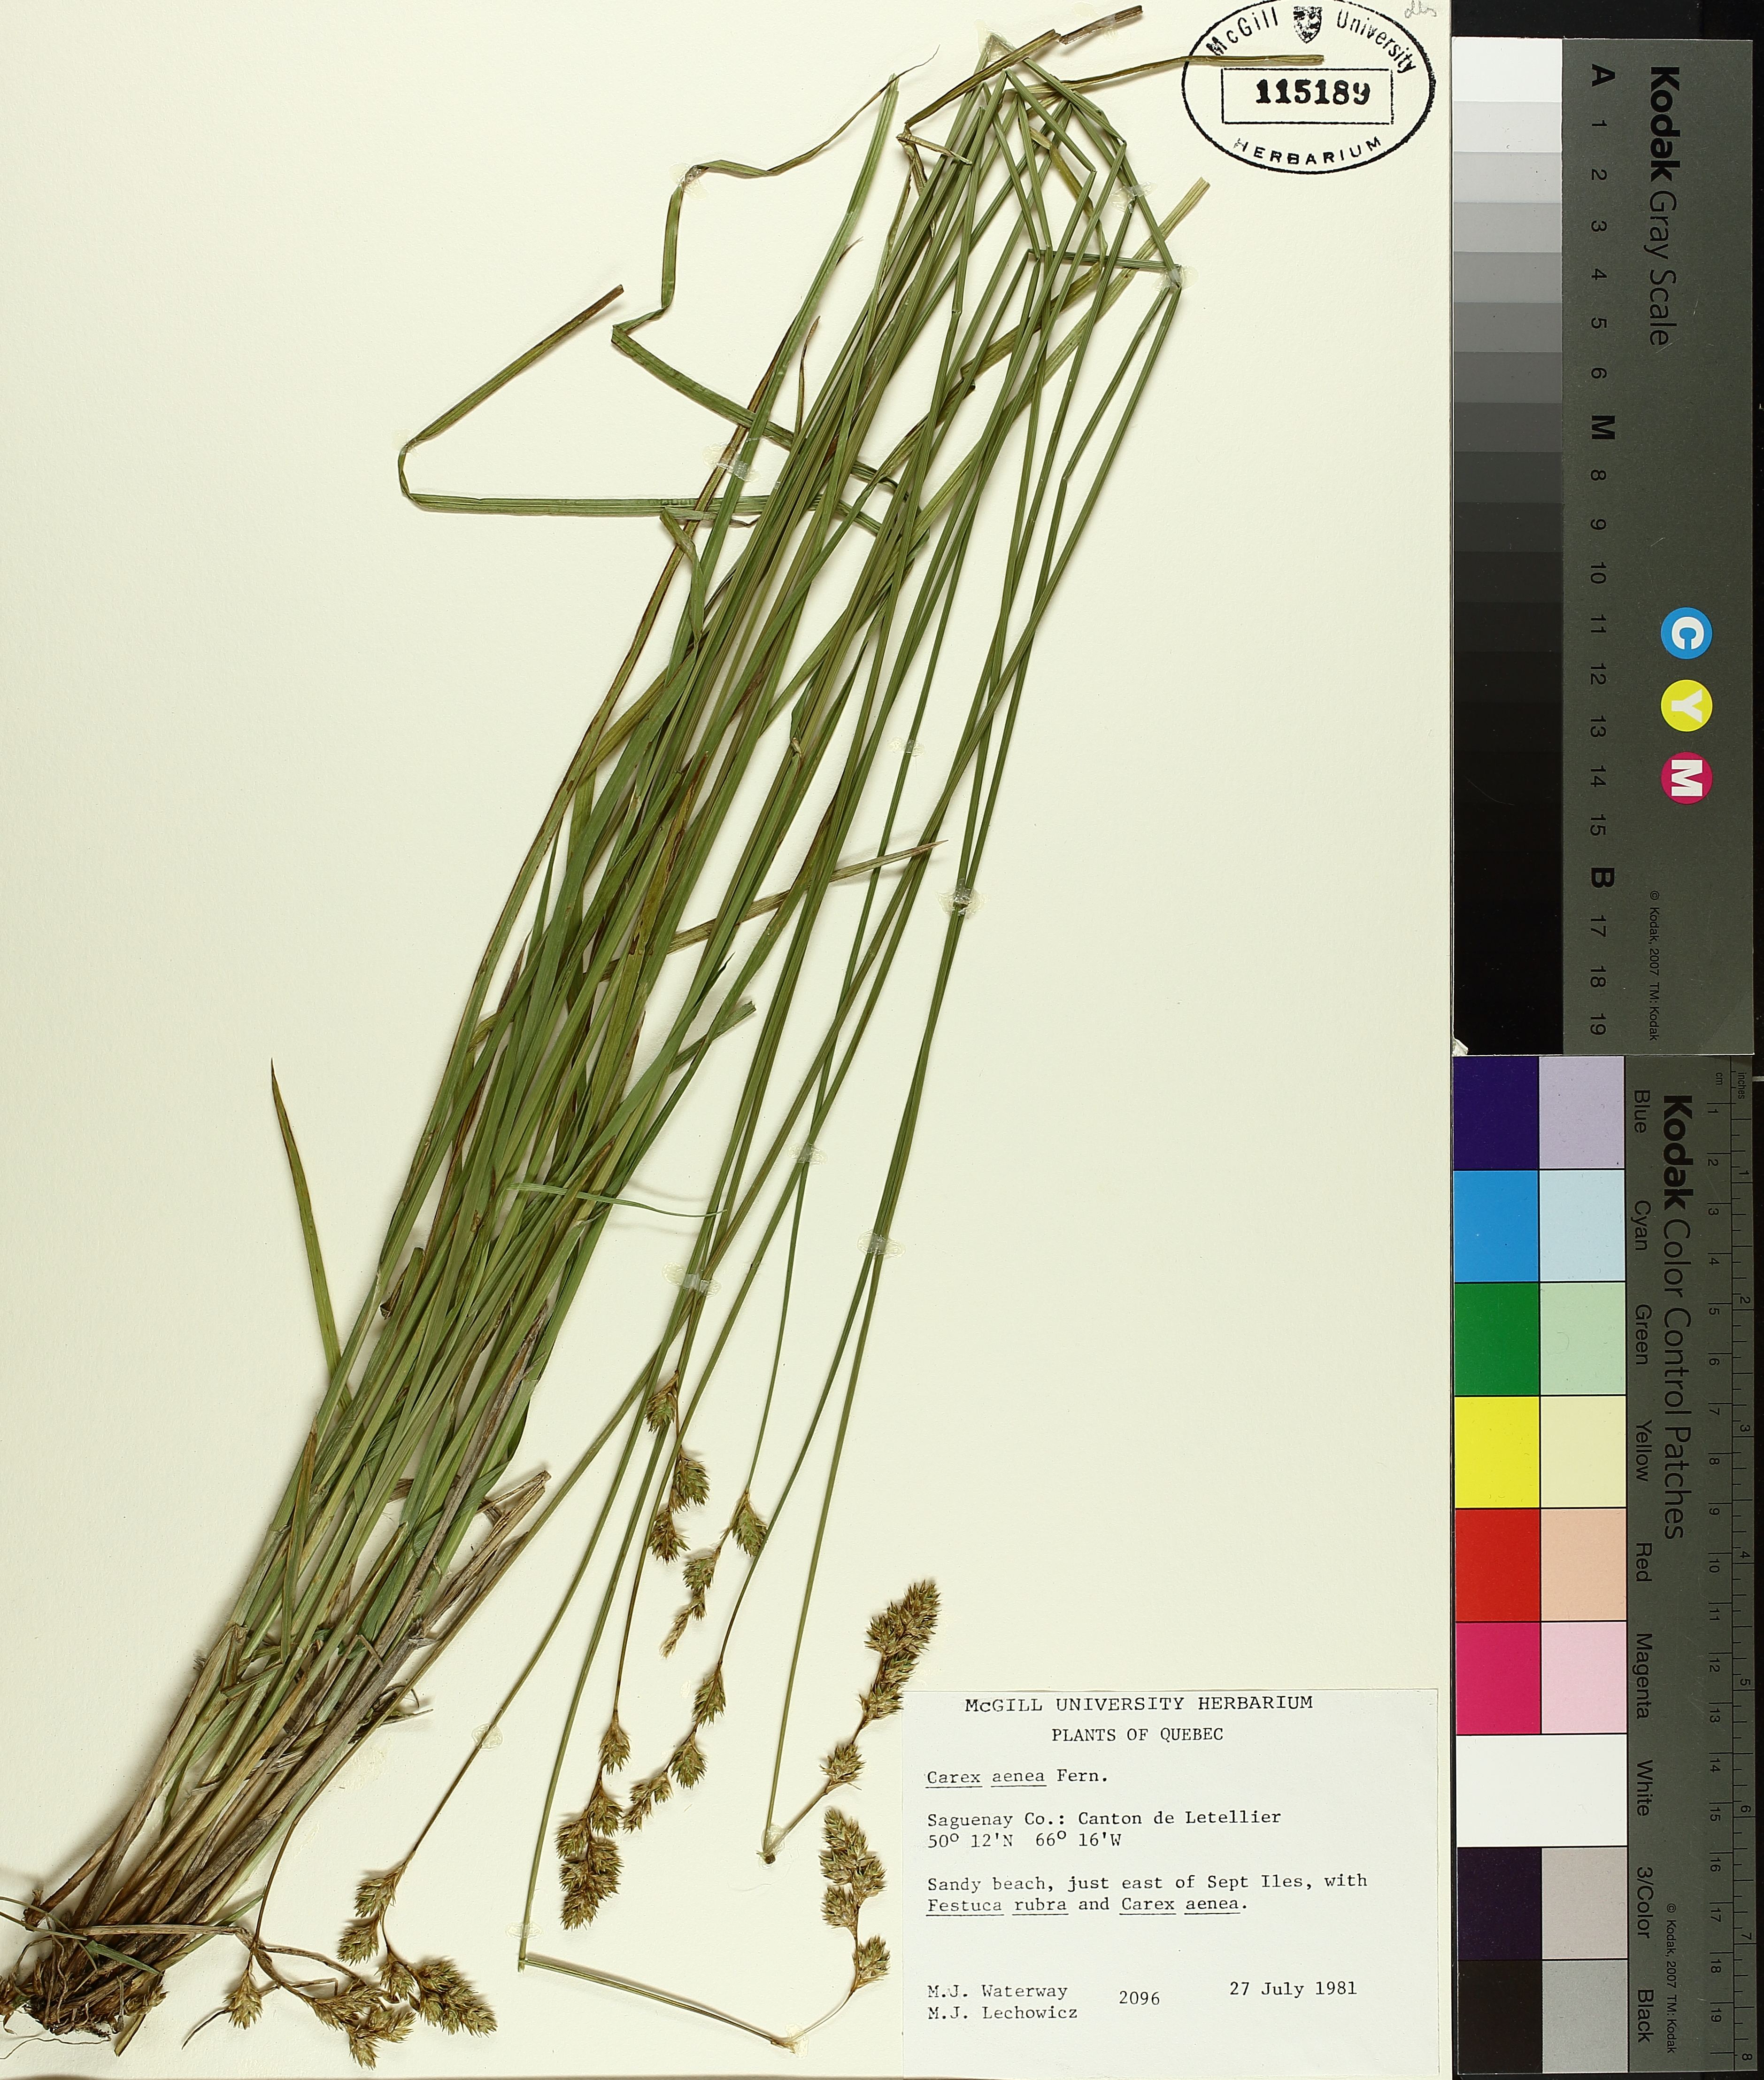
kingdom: Plantae
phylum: Tracheophyta
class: Liliopsida
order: Poales
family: Cyperaceae
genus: Carex
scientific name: Carex foenea
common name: Bronze sedge
